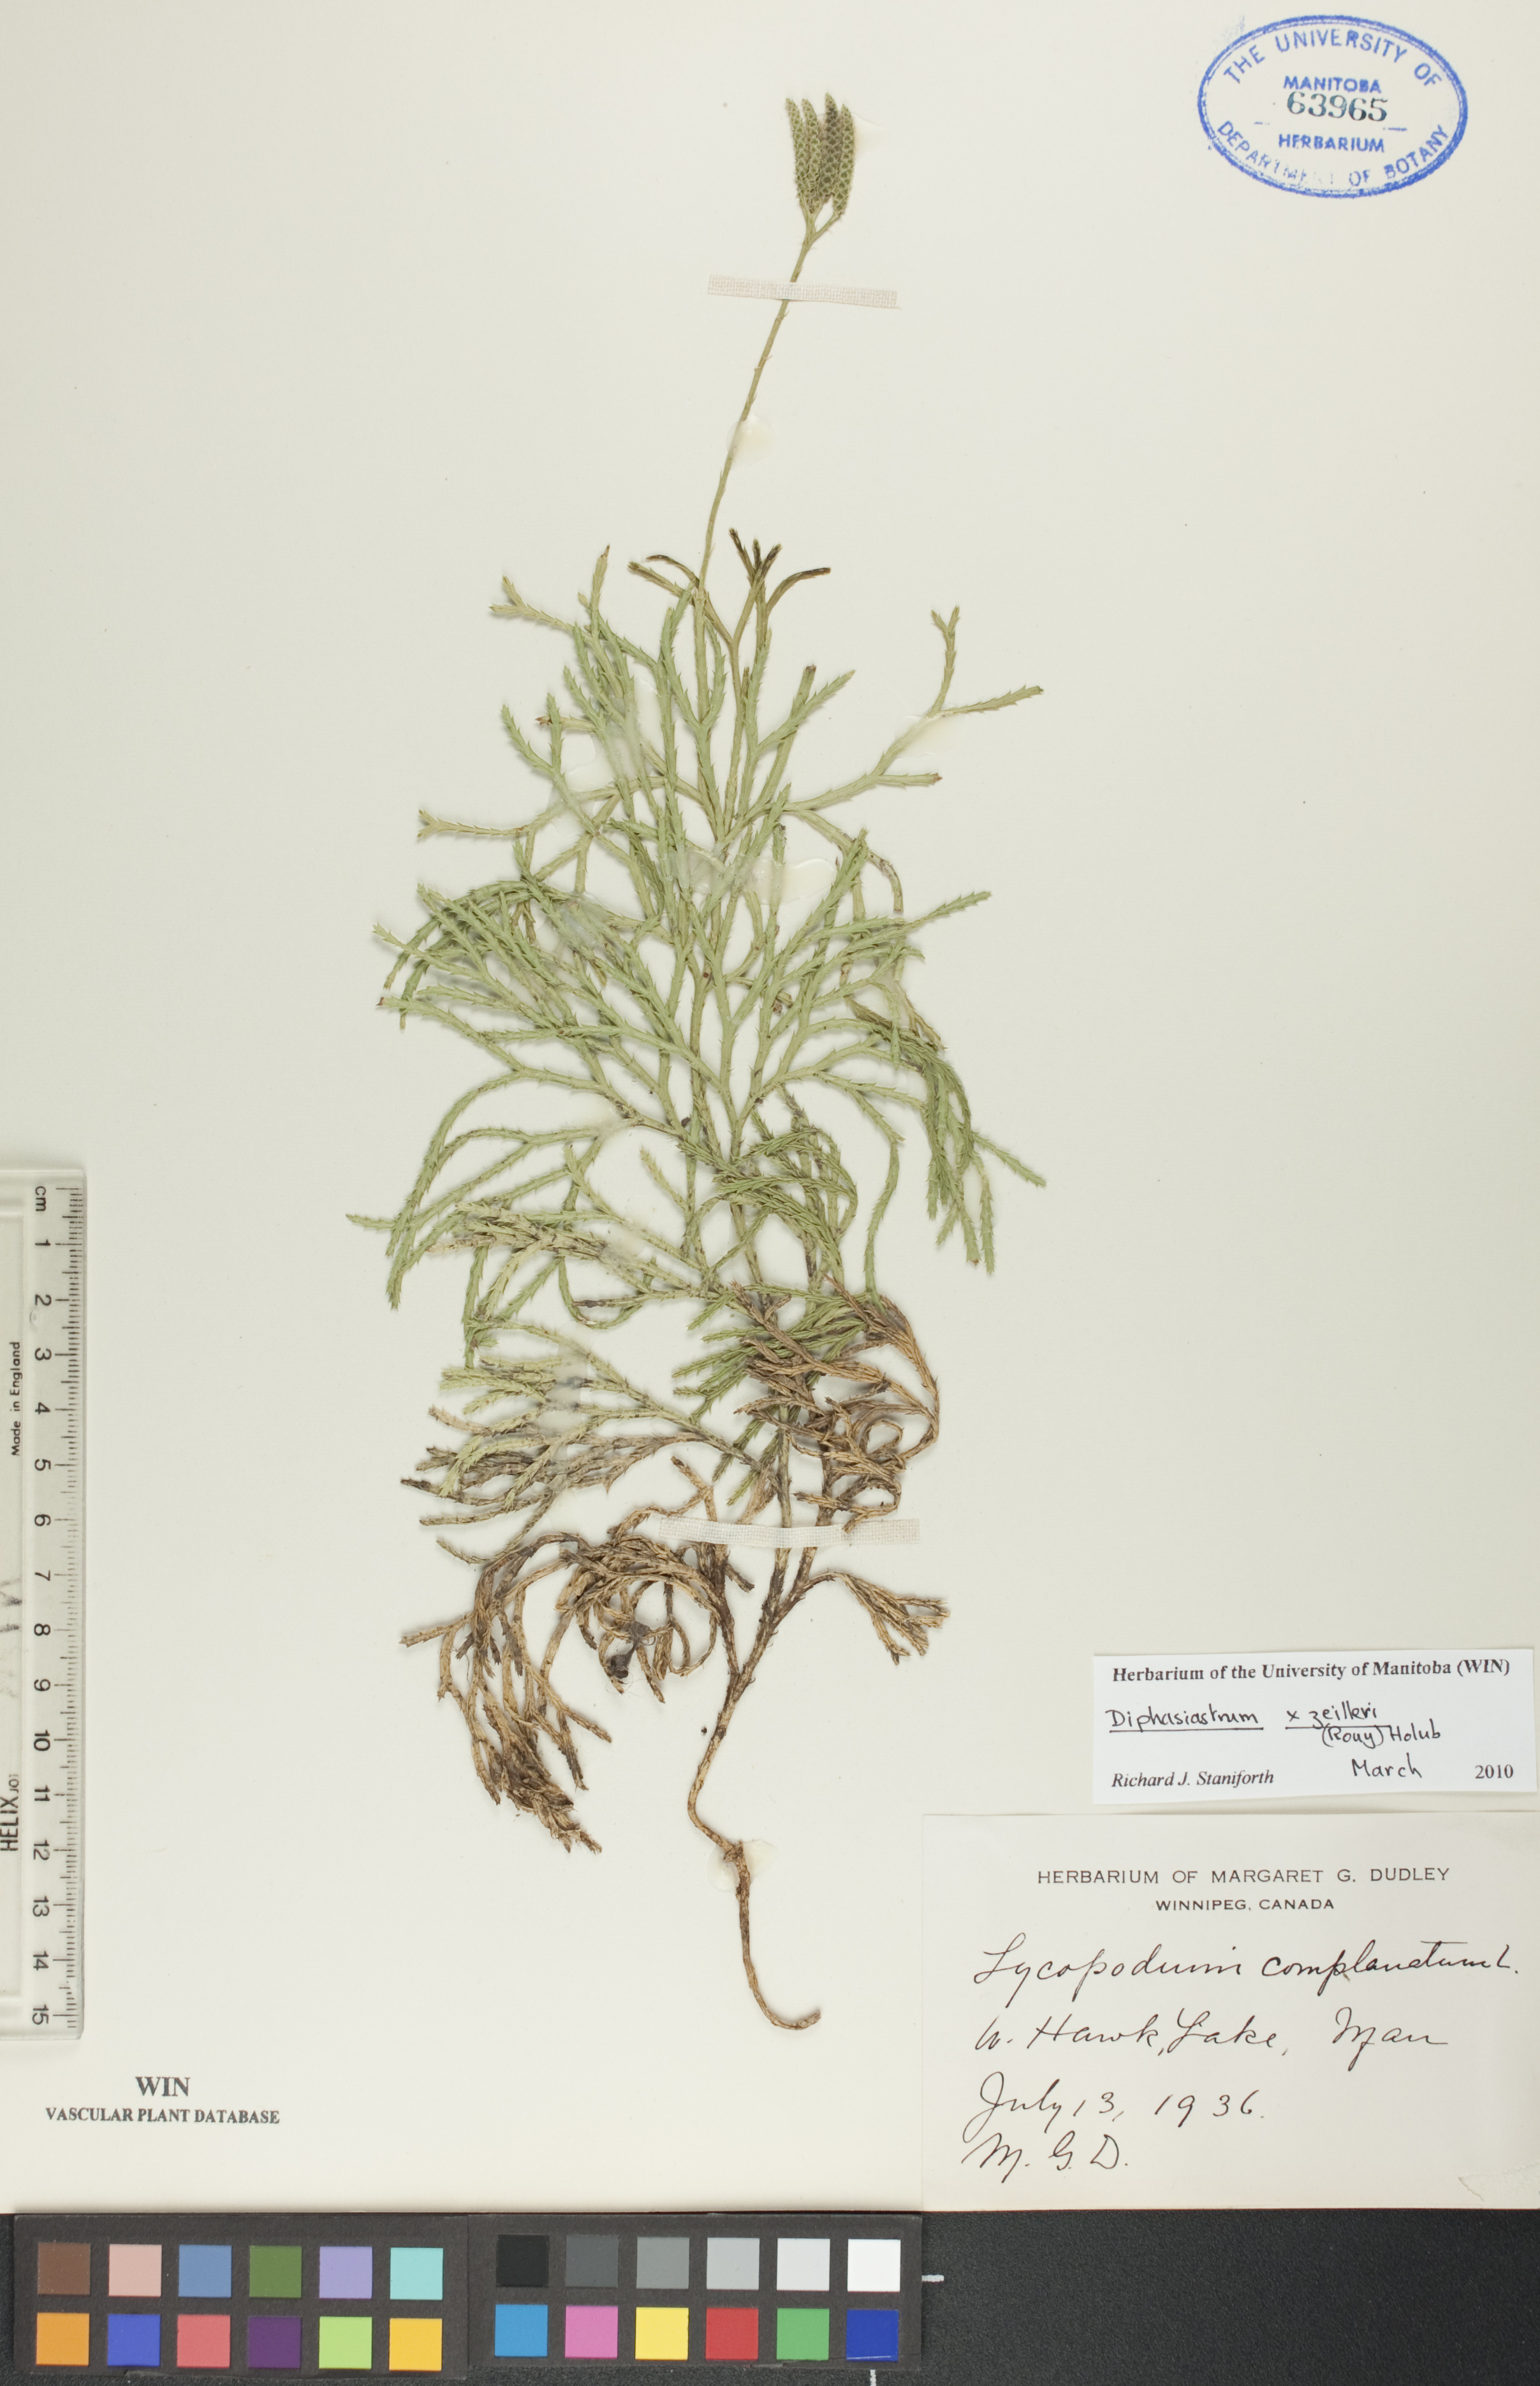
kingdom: Plantae
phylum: Tracheophyta
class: Lycopodiopsida
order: Lycopodiales
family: Lycopodiaceae
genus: Diphasiastrum
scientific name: Diphasiastrum zeilleri
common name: Zeiller's clubmoss
